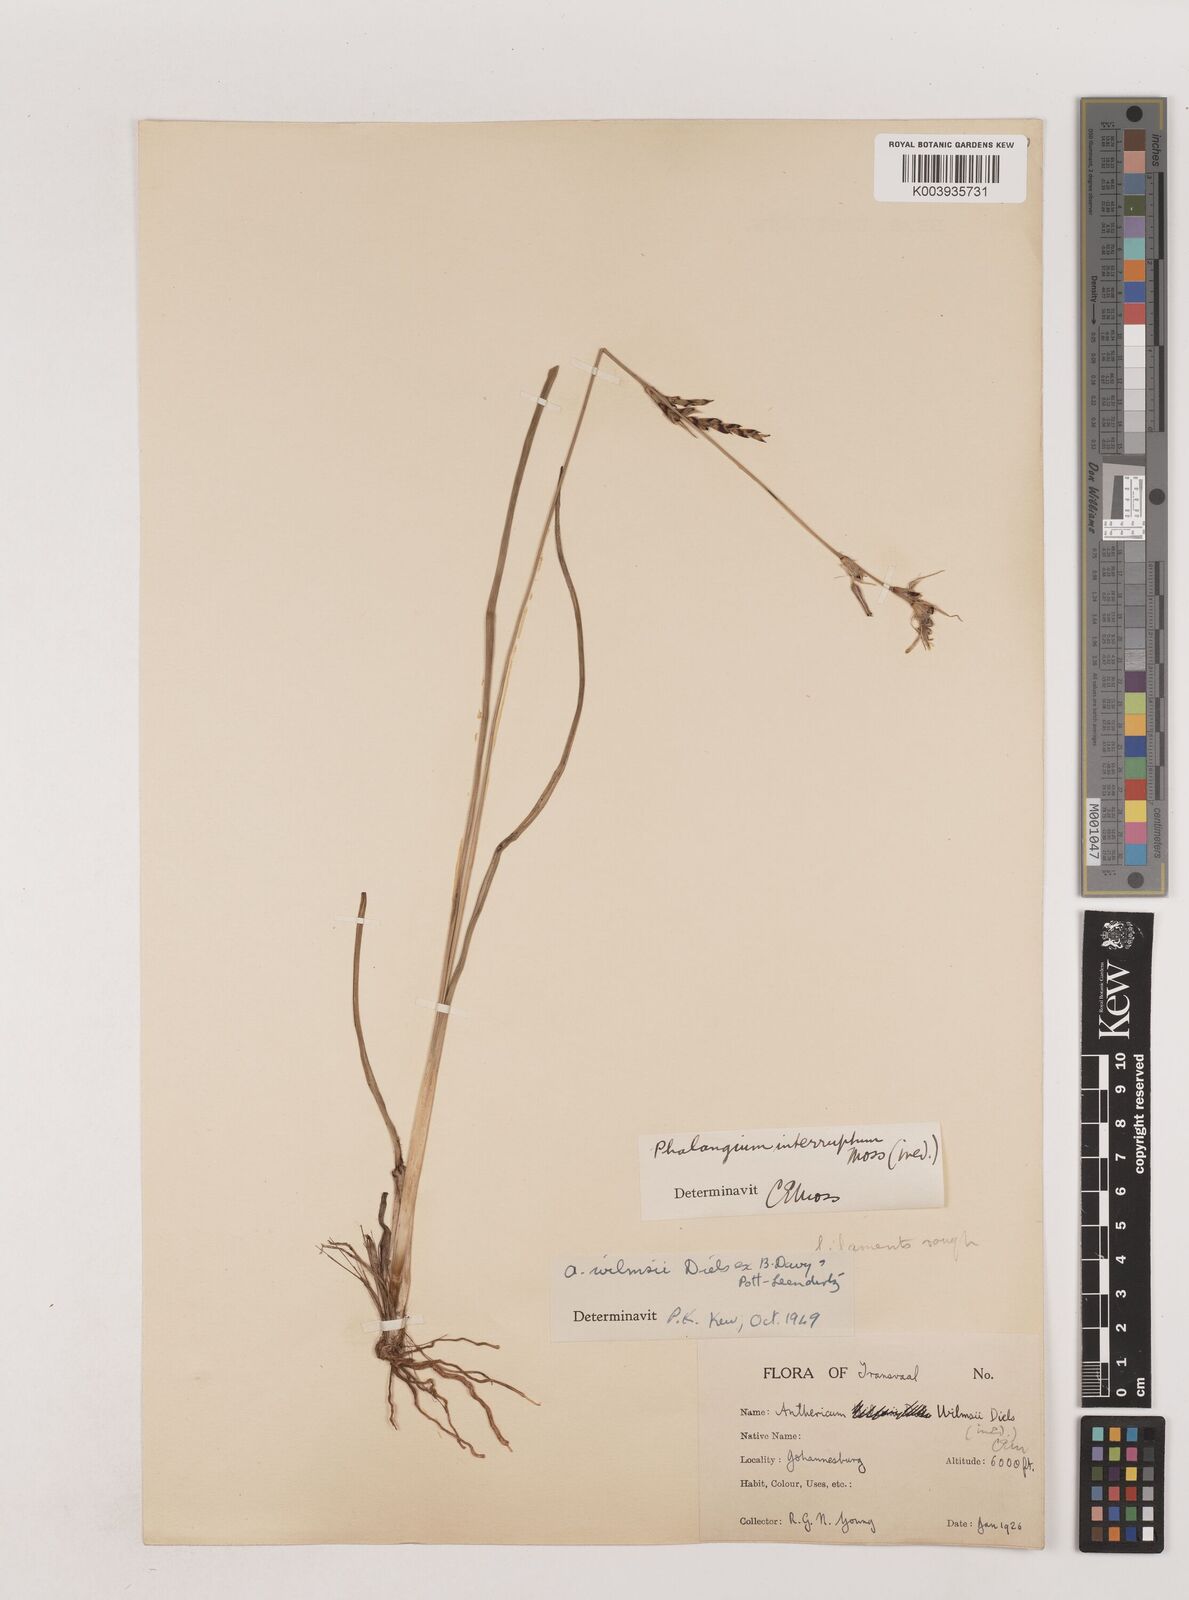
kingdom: Plantae
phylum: Tracheophyta
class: Liliopsida
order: Asparagales
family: Asparagaceae
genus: Chlorophytum
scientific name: Chlorophytum fasciculatum
